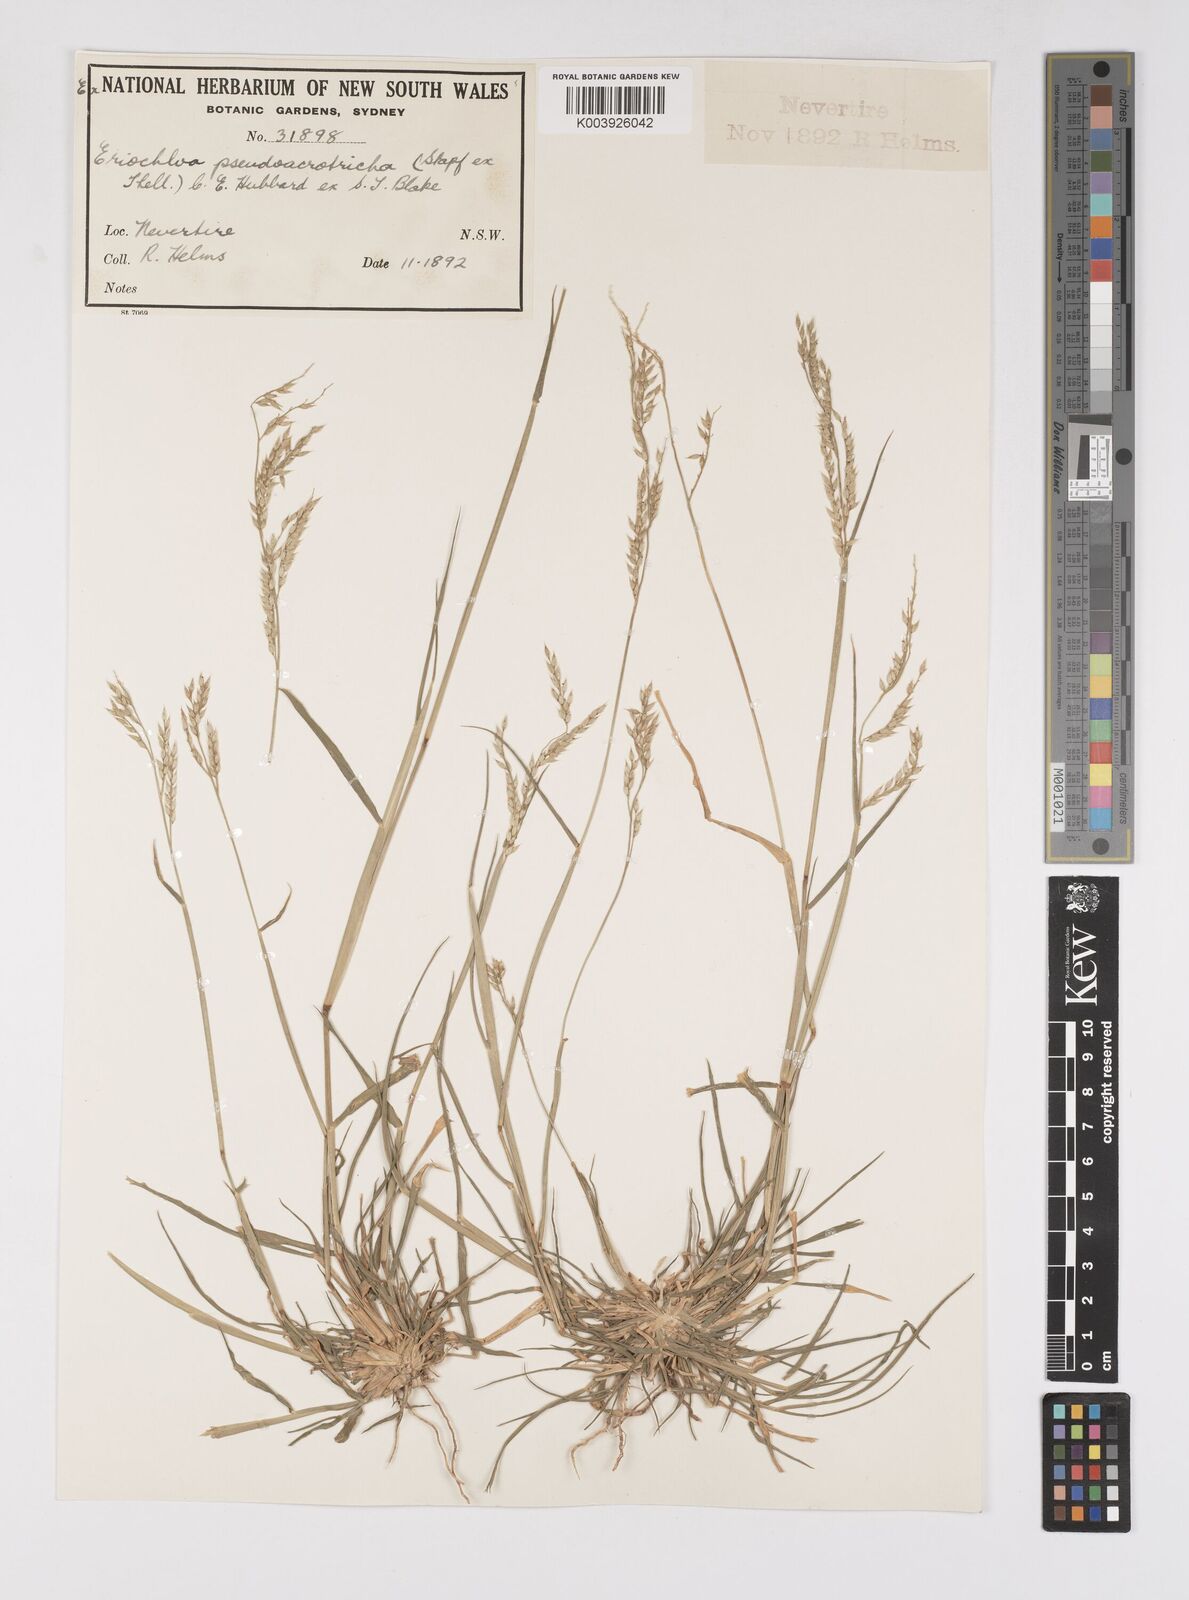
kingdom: Plantae
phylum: Tracheophyta
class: Liliopsida
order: Poales
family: Poaceae
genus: Eriochloa
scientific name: Eriochloa pseudoacrotricha
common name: Perennial cup-grass
